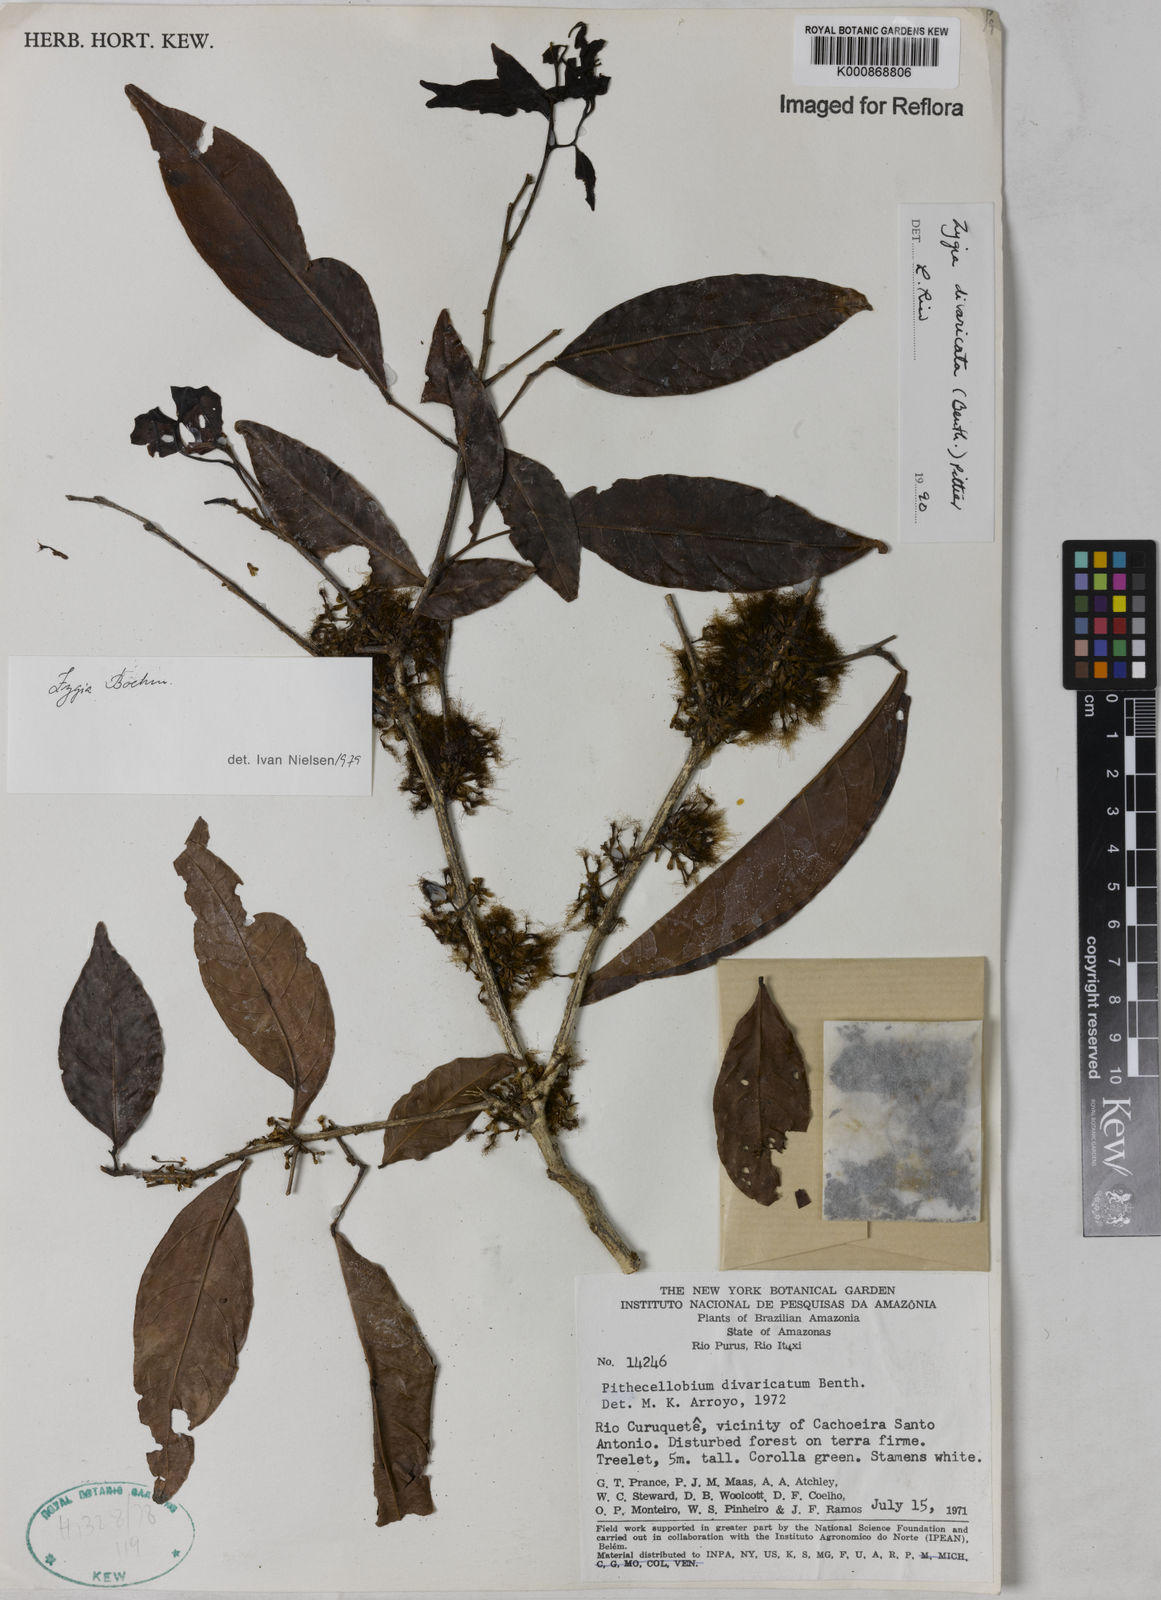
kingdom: Plantae
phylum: Tracheophyta
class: Magnoliopsida
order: Fabales
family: Fabaceae
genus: Zygia
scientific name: Zygia cataractae
